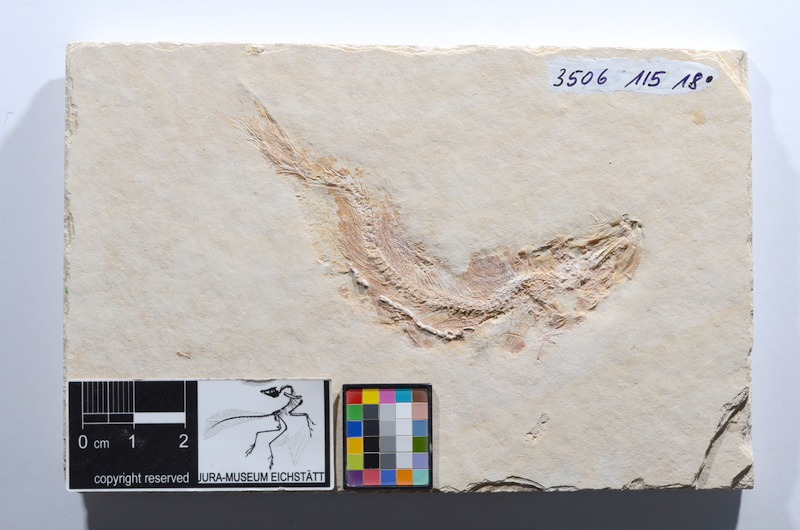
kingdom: Animalia
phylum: Chordata
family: Ascalaboidae
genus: Tharsis
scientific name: Tharsis dubius
